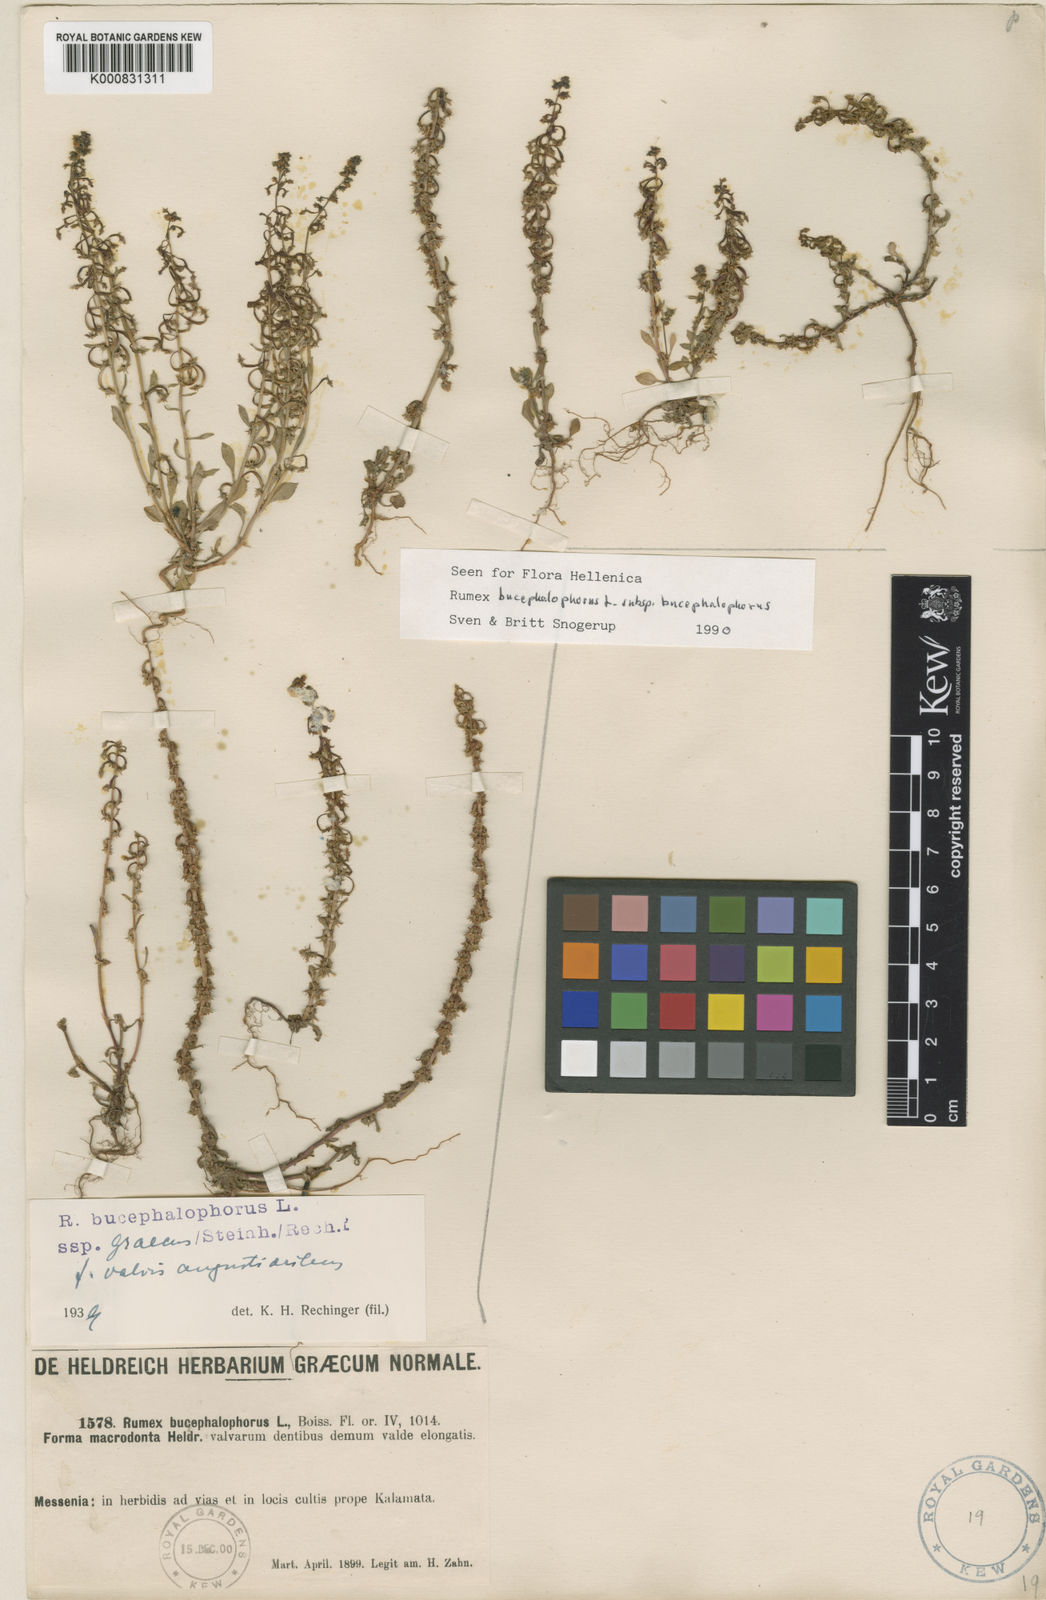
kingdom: Plantae
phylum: Tracheophyta
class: Magnoliopsida
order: Caryophyllales
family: Polygonaceae
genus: Rumex
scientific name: Rumex bucephalophorus
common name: Red dock
